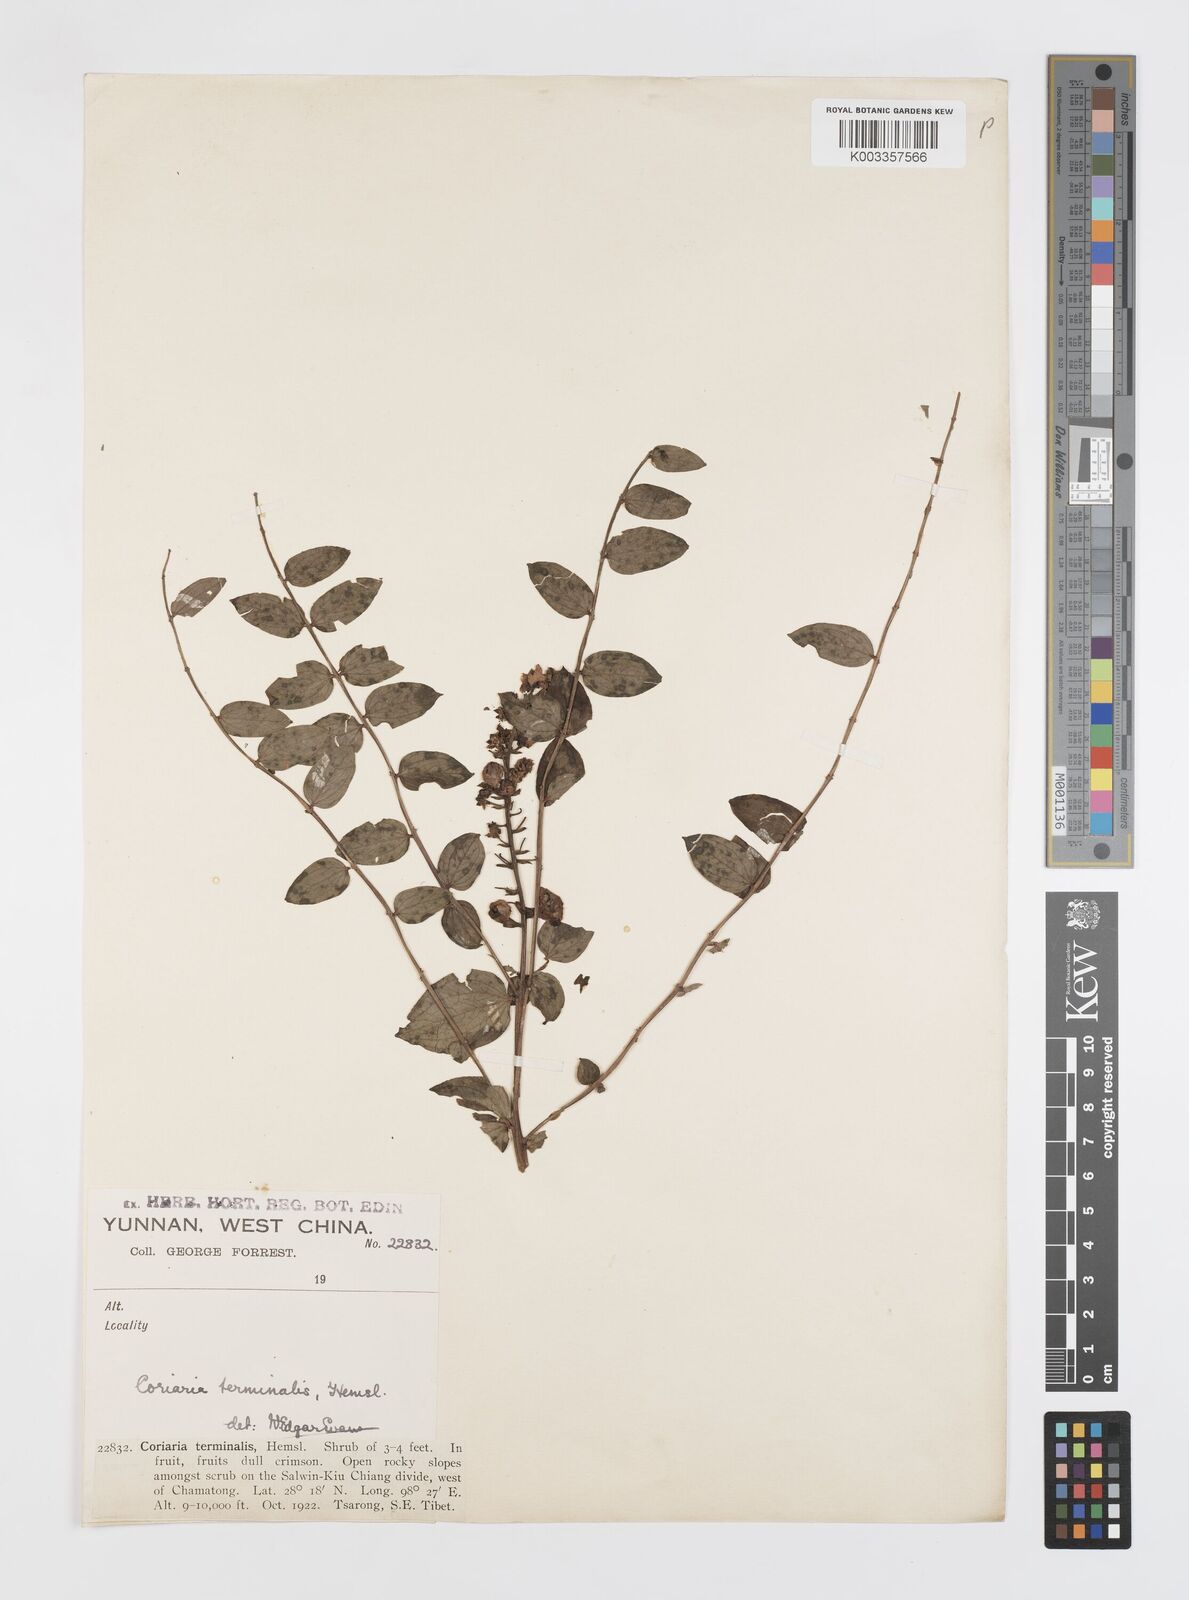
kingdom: Plantae
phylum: Tracheophyta
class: Magnoliopsida
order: Cucurbitales
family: Coriariaceae
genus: Coriaria
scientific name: Coriaria terminalis
